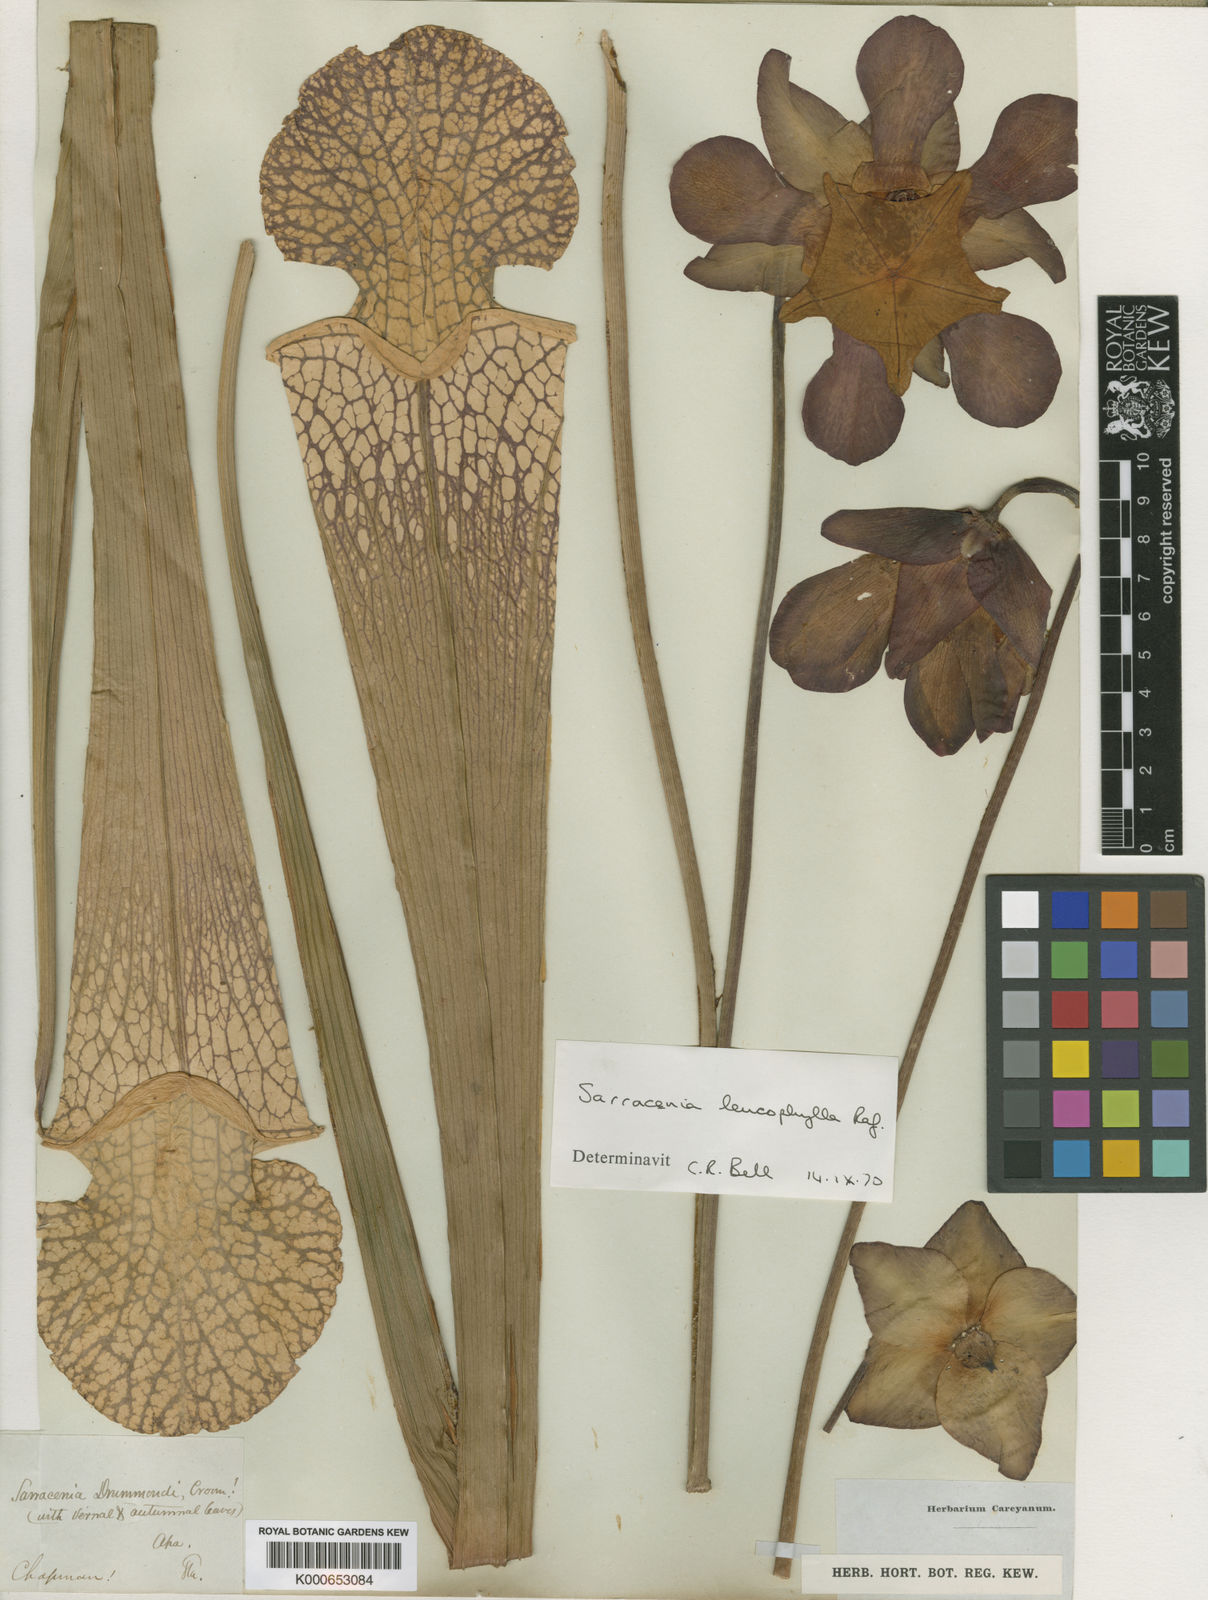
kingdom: Plantae
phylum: Tracheophyta
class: Magnoliopsida
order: Ericales
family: Sarraceniaceae
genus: Sarracenia
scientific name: Sarracenia leucophylla
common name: Purple trumpetleaf
